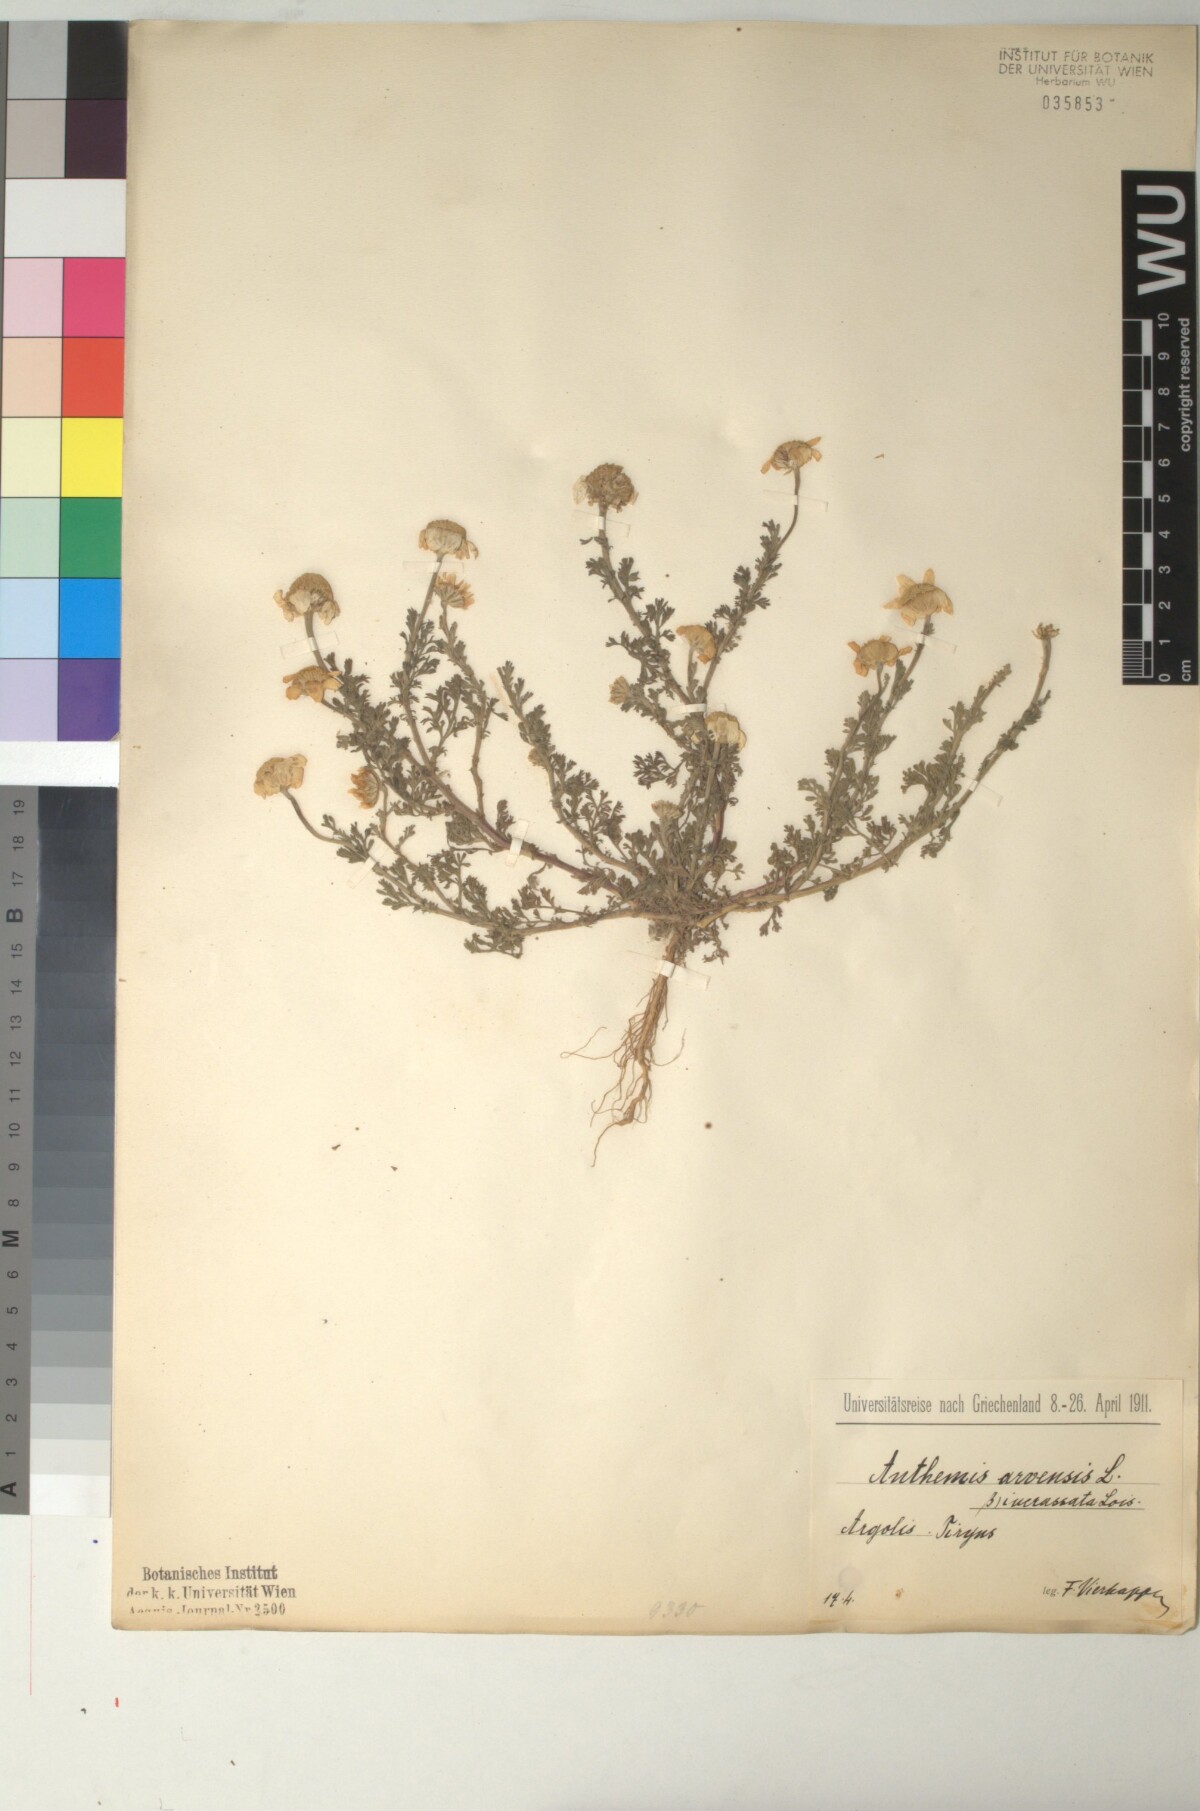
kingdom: Plantae
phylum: Tracheophyta
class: Magnoliopsida
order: Asterales
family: Asteraceae
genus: Anthemis
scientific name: Anthemis arvensis
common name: Corn chamomile
